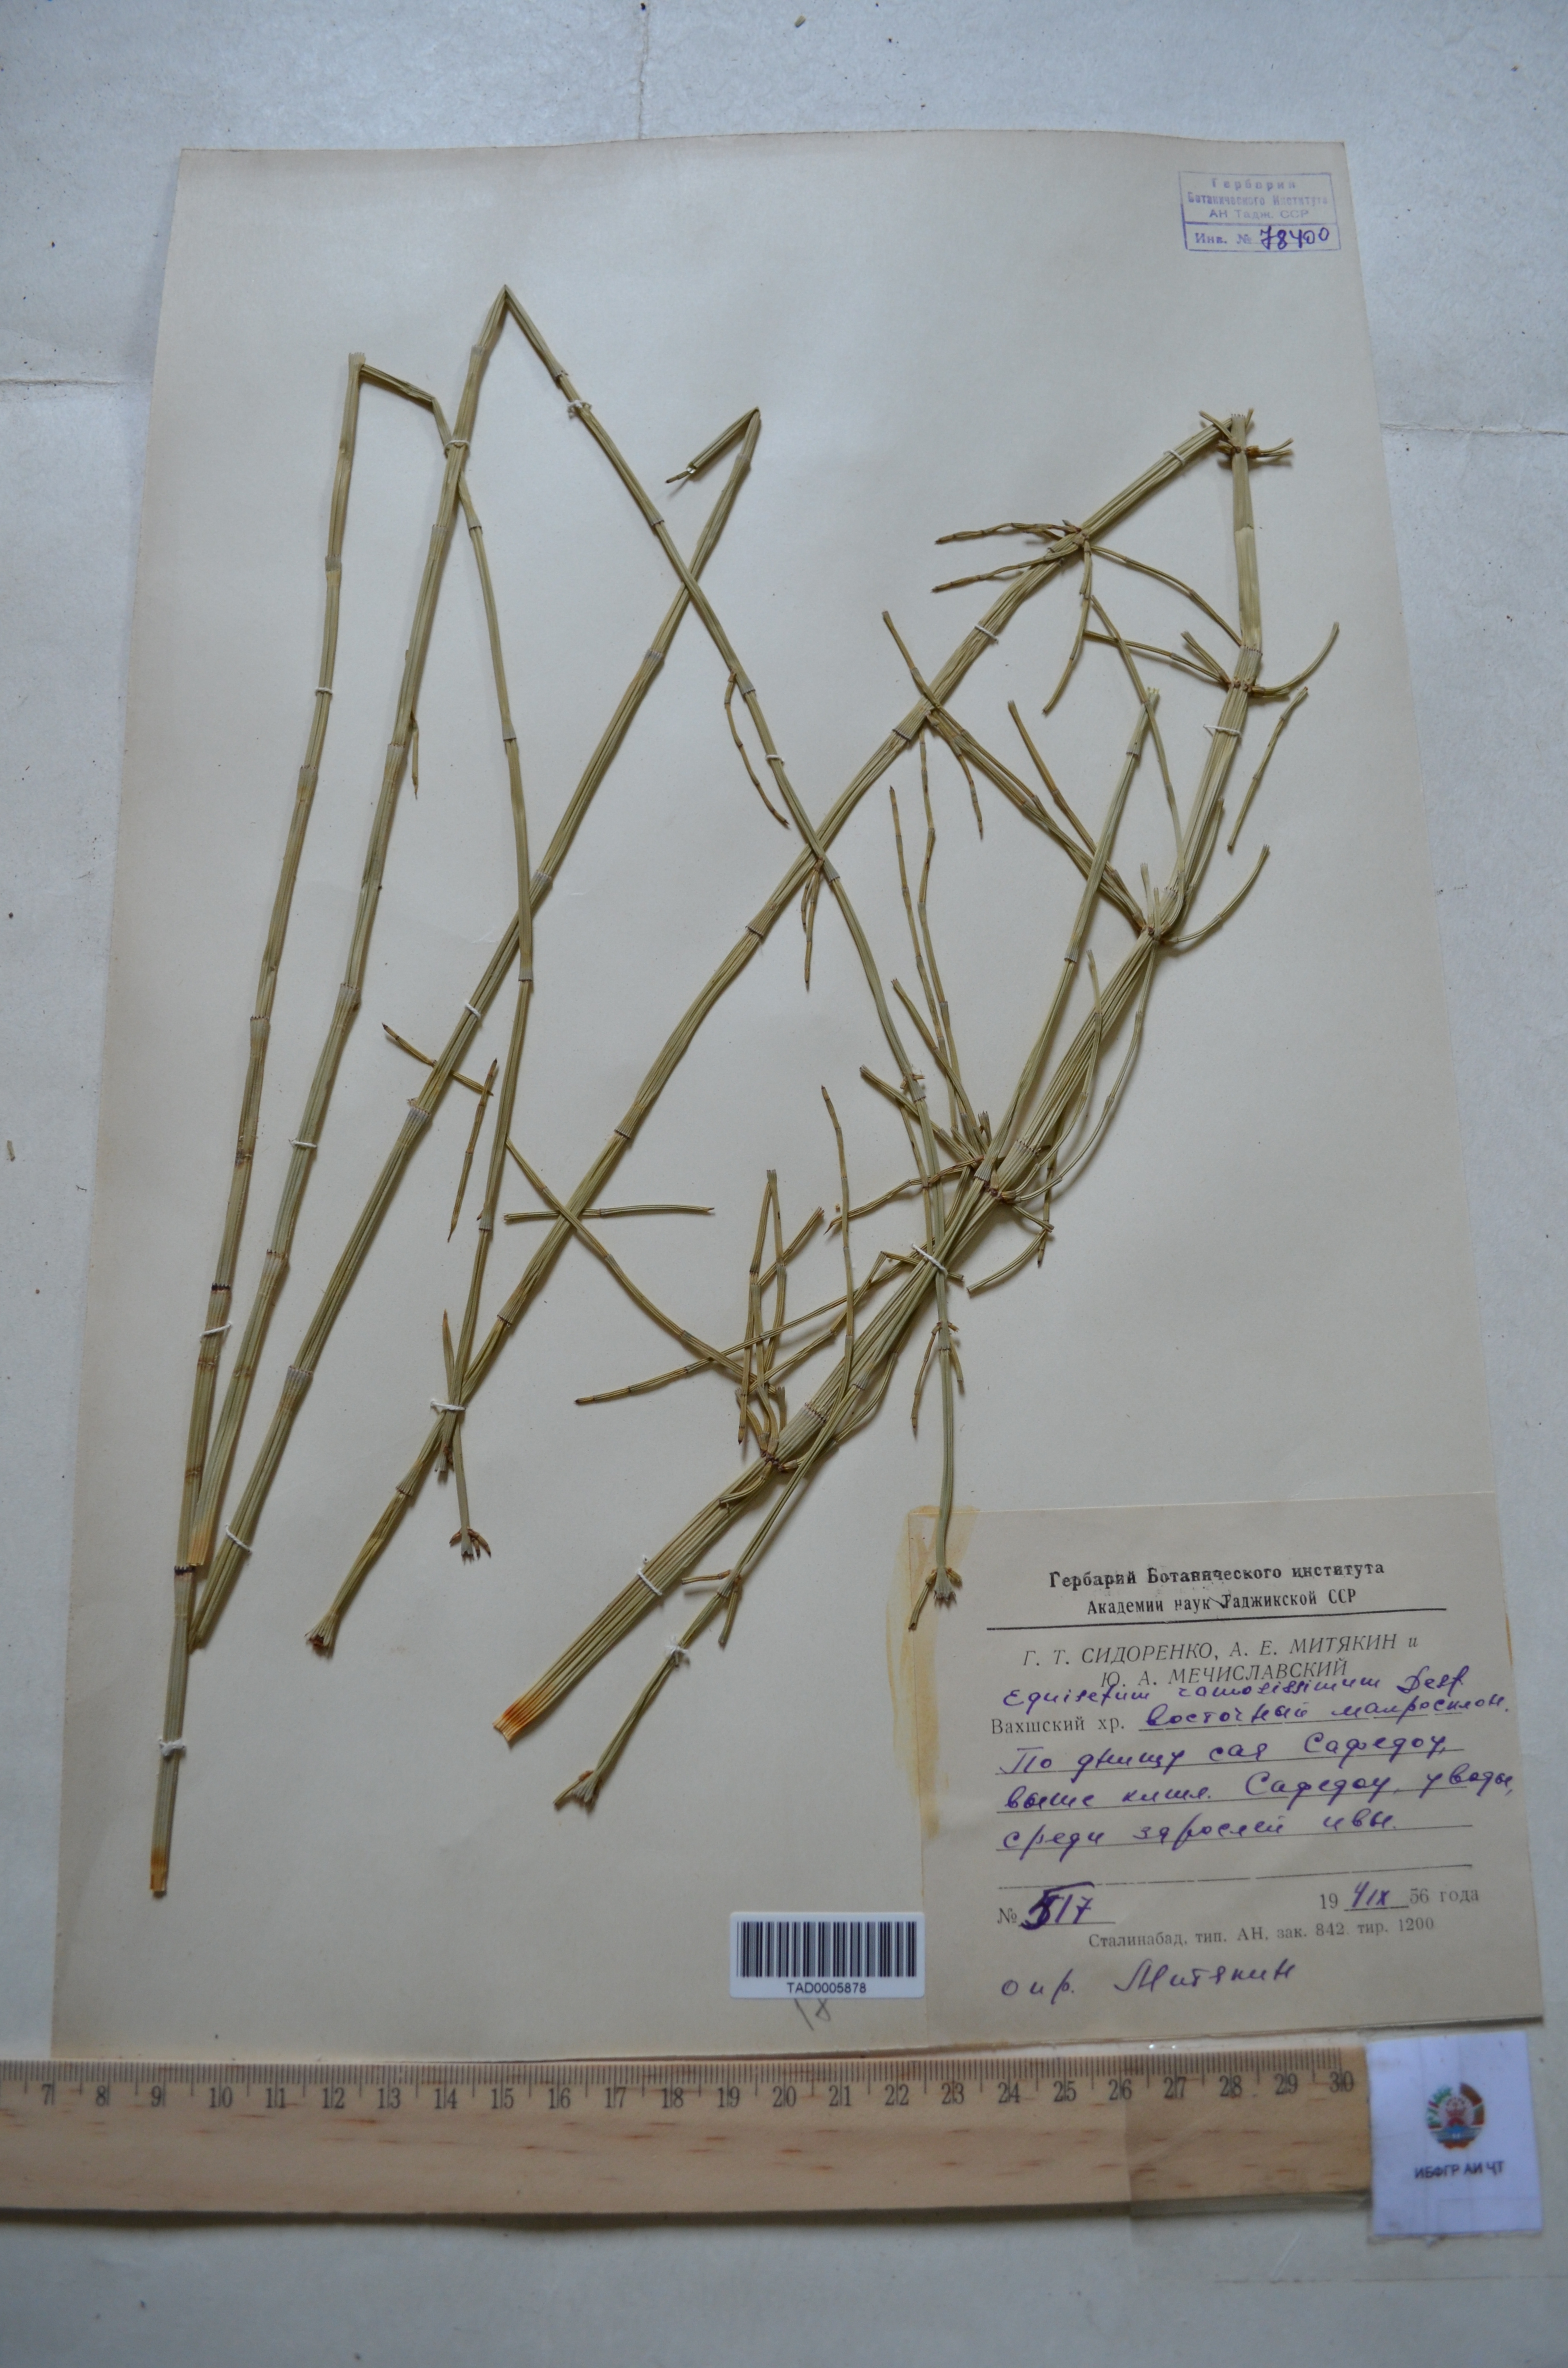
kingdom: Plantae
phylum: Tracheophyta
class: Polypodiopsida
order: Equisetales
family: Equisetaceae
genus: Equisetum
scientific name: Equisetum ramosissimum
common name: Branched horsetail
